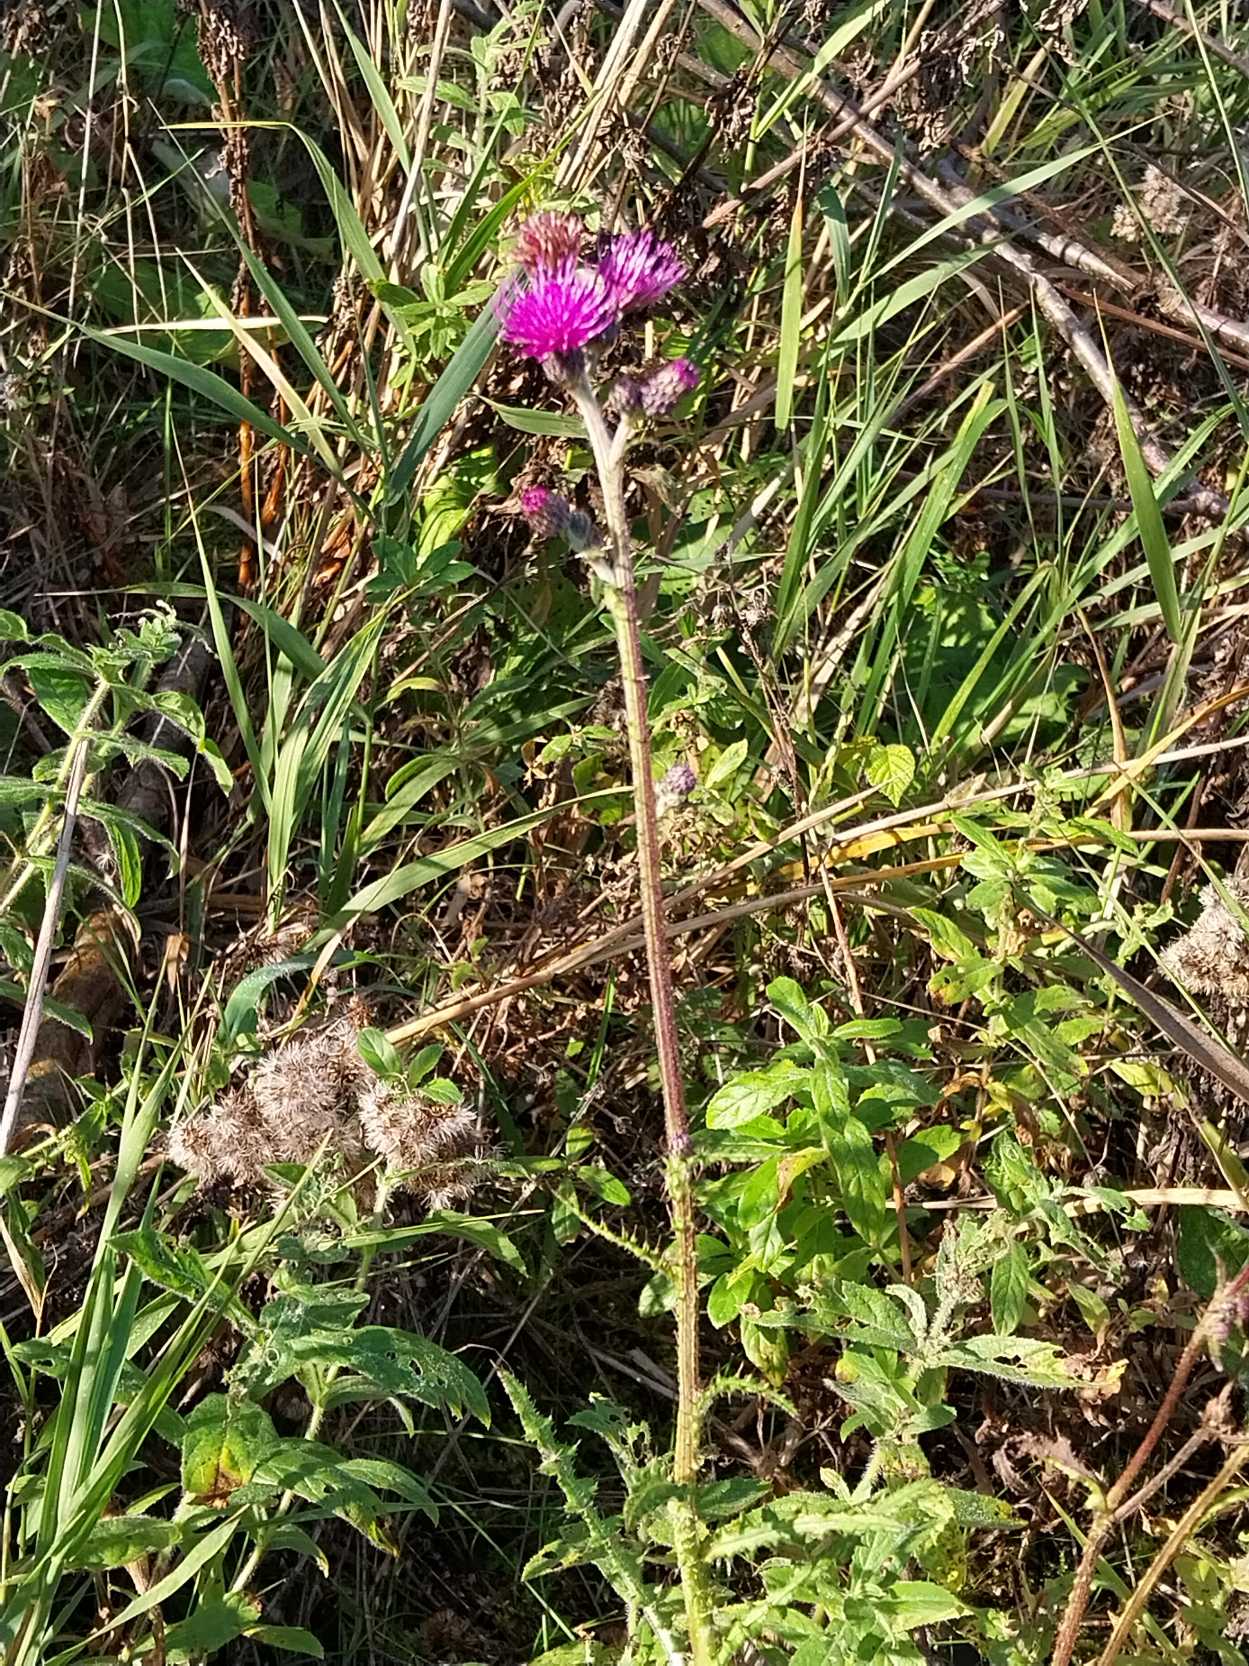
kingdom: Plantae
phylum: Tracheophyta
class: Magnoliopsida
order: Asterales
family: Asteraceae
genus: Cirsium
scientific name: Cirsium palustre
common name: Kær-tidsel
